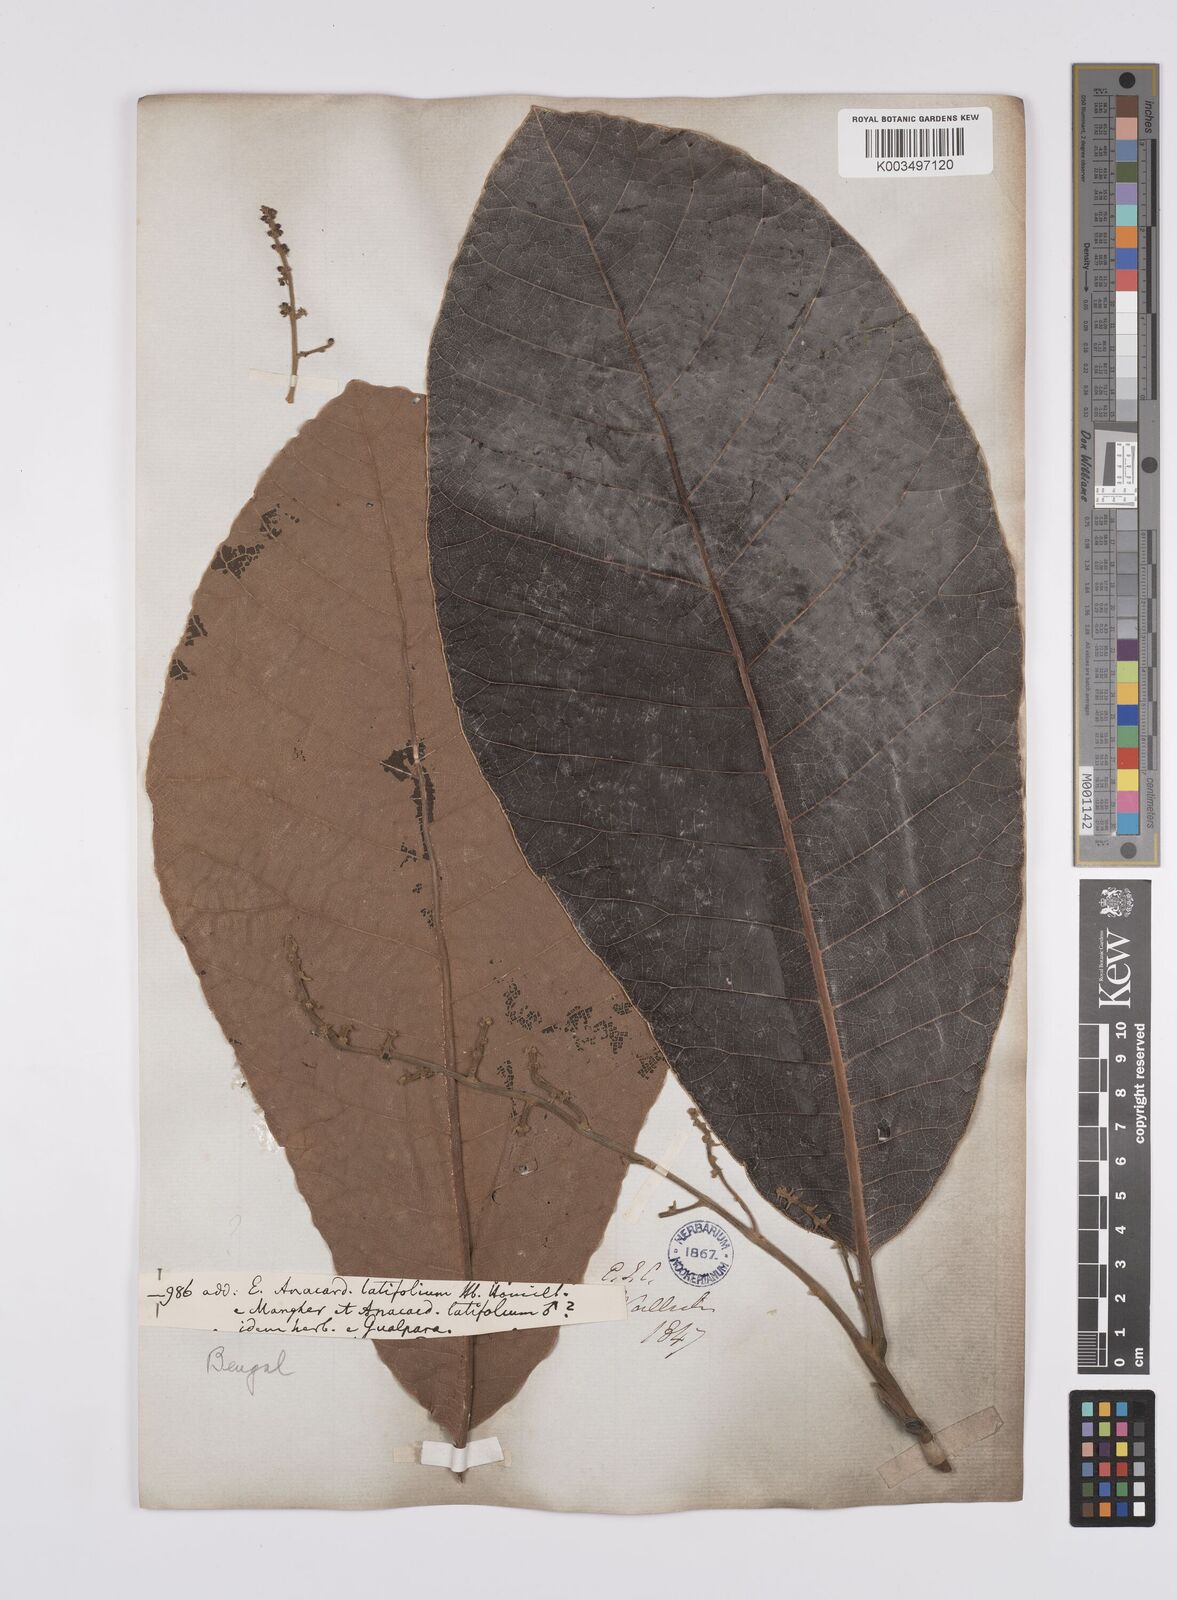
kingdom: Plantae
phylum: Tracheophyta
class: Magnoliopsida
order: Sapindales
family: Anacardiaceae
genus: Semecarpus
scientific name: Semecarpus anacardium
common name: Marking nut-tree
